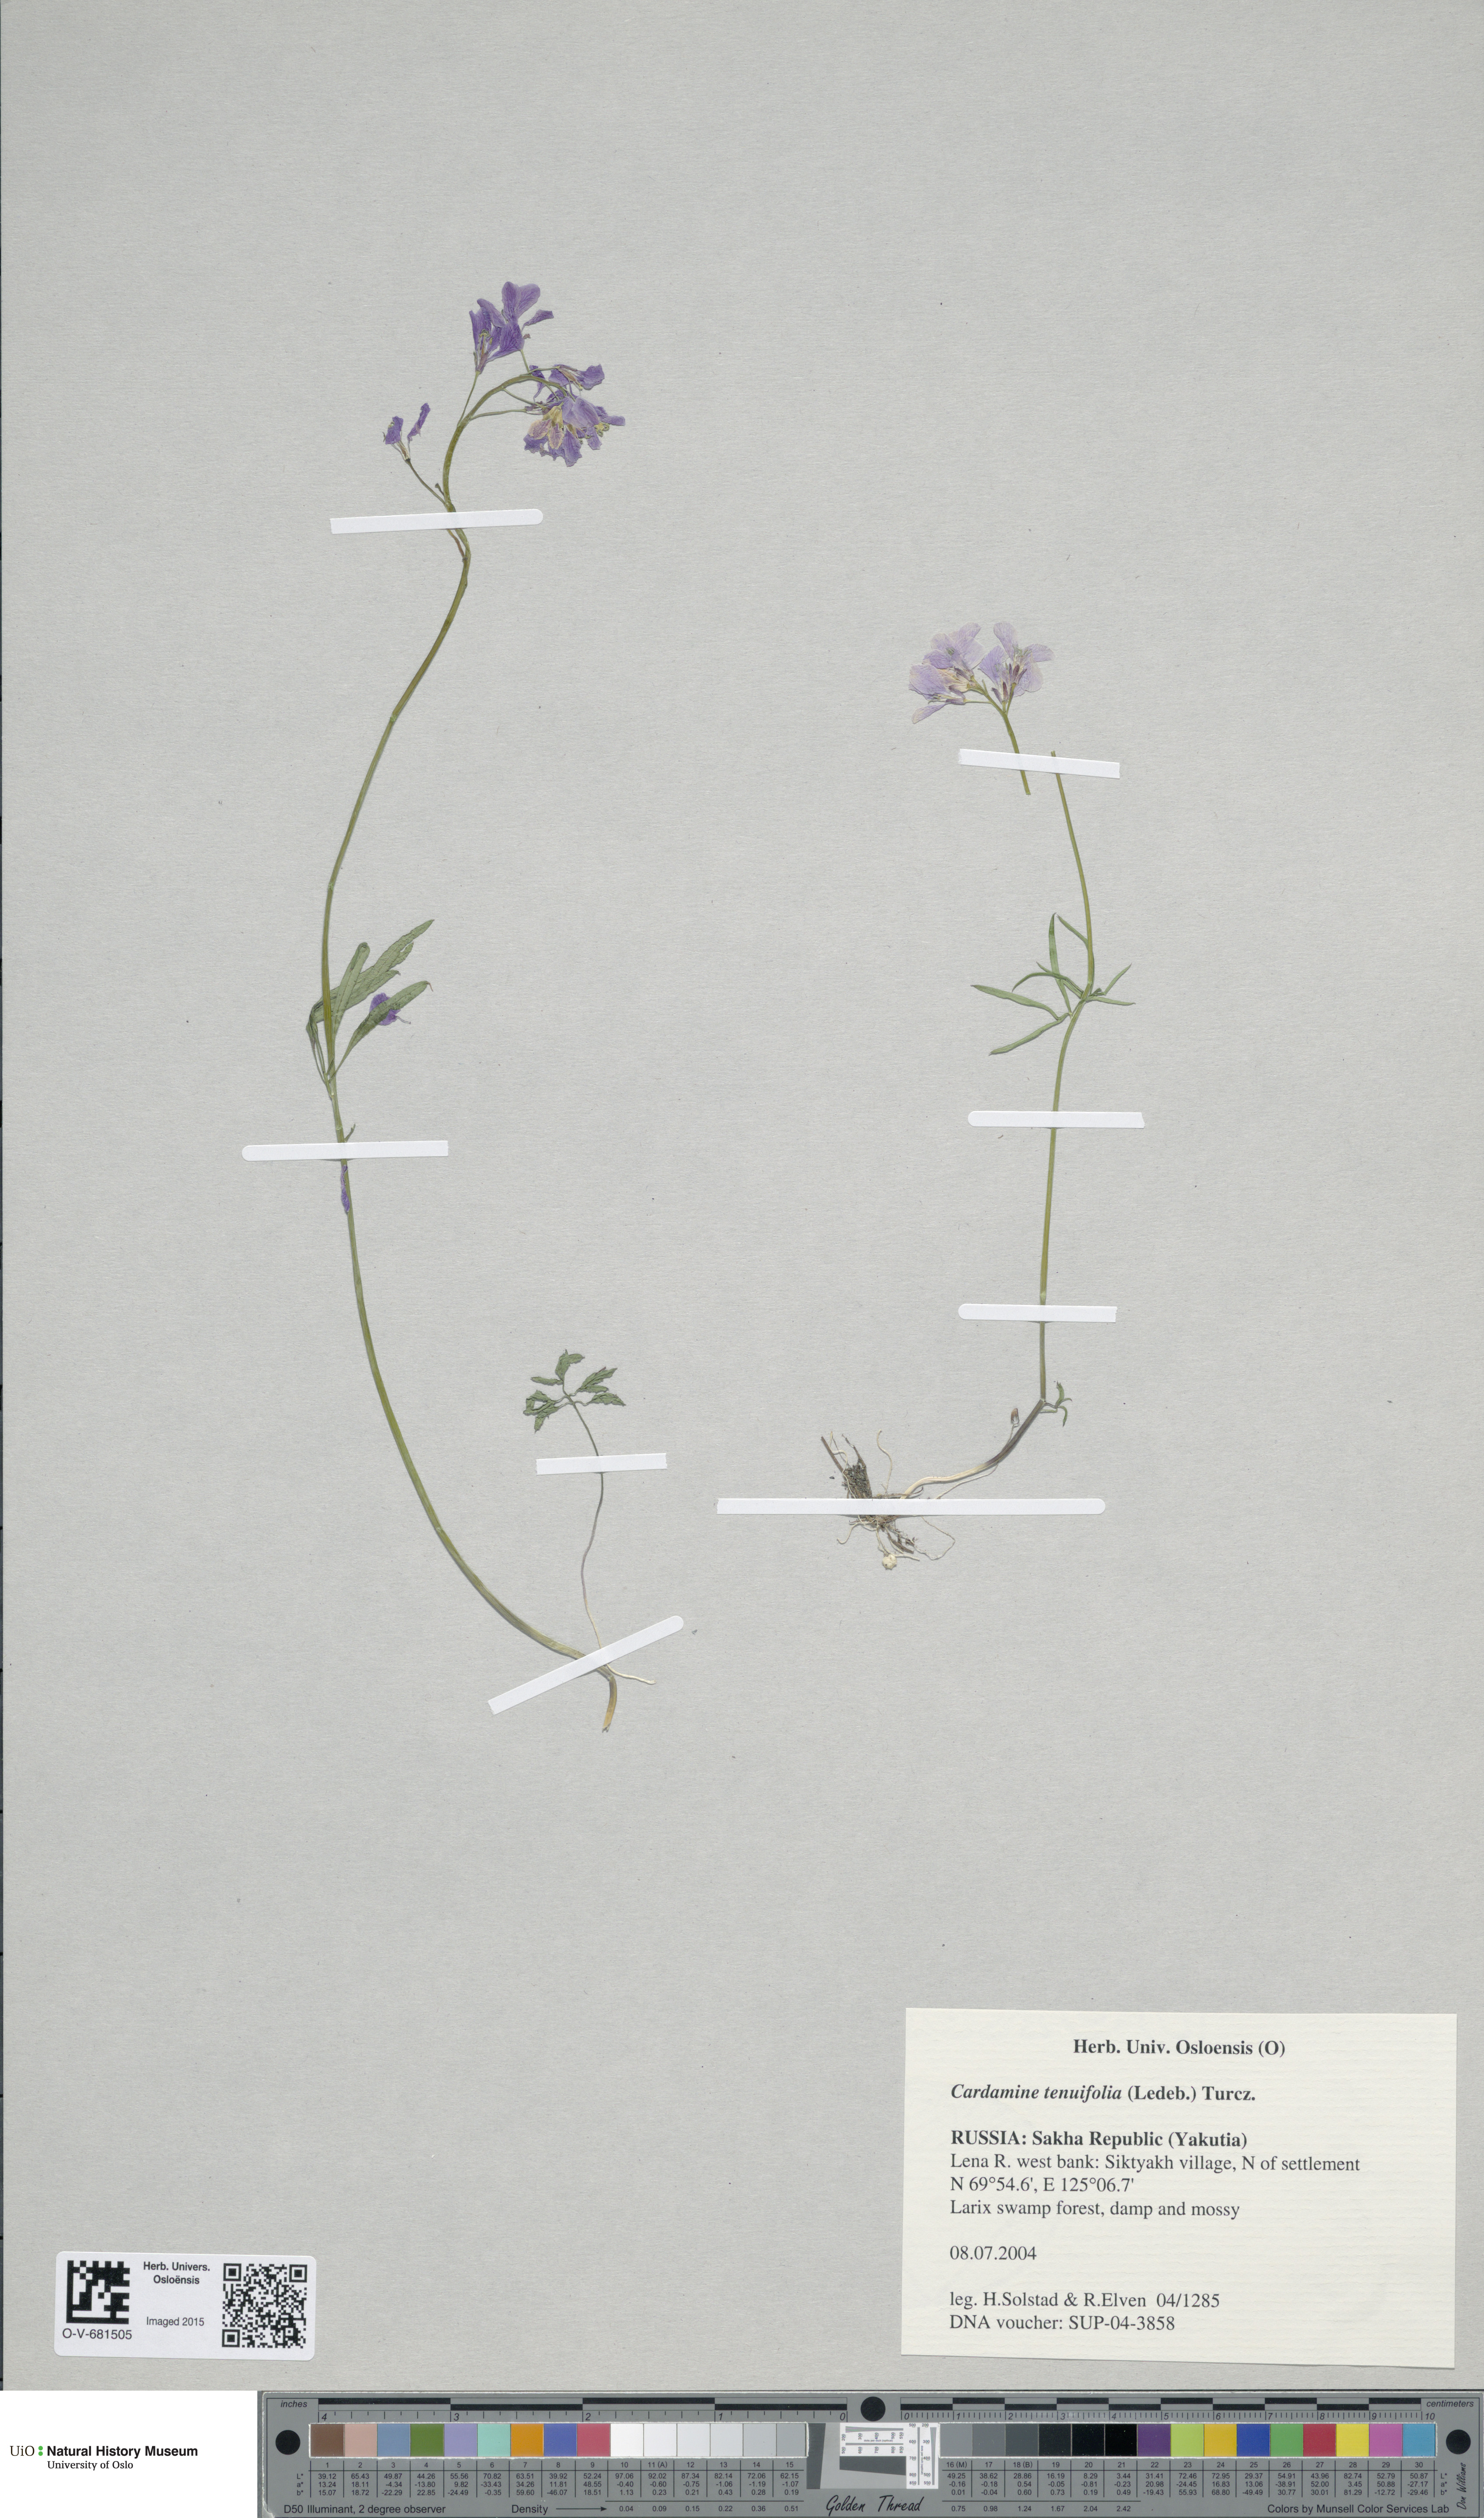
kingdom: Plantae
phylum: Tracheophyta
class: Magnoliopsida
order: Brassicales
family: Brassicaceae
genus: Cardamine
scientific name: Cardamine trifida
